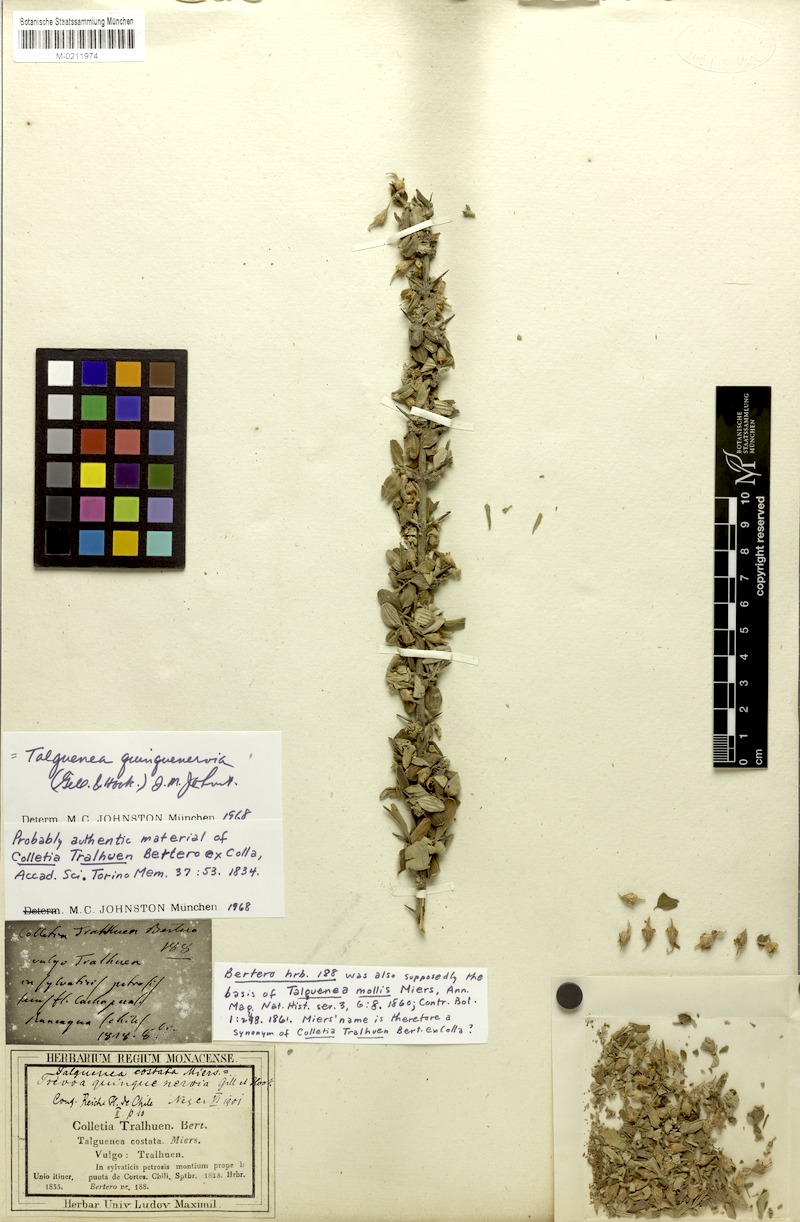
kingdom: Plantae
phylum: Tracheophyta
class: Magnoliopsida
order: Rosales
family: Rhamnaceae
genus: Trevoa
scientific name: Trevoa quinquenervia
